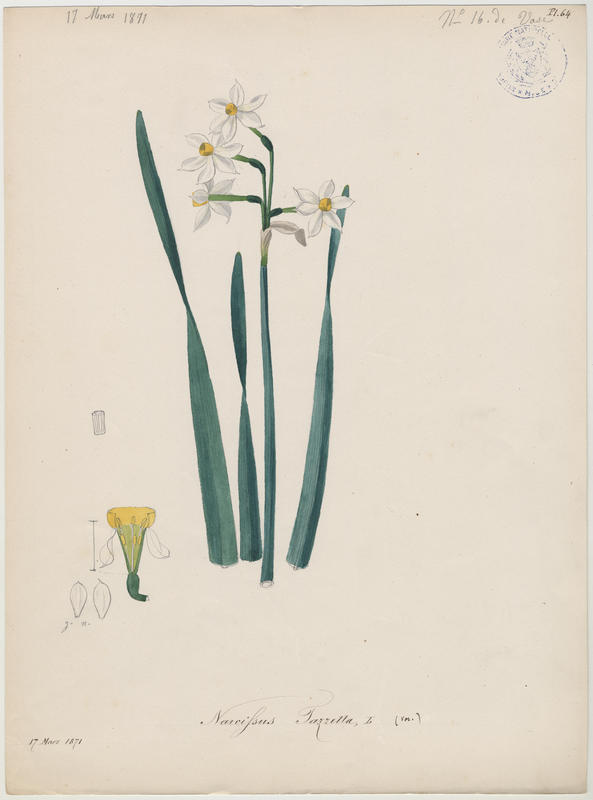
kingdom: Plantae
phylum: Tracheophyta
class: Liliopsida
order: Asparagales
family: Amaryllidaceae
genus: Narcissus
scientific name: Narcissus tazetta
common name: Bunch-flowered daffodil
